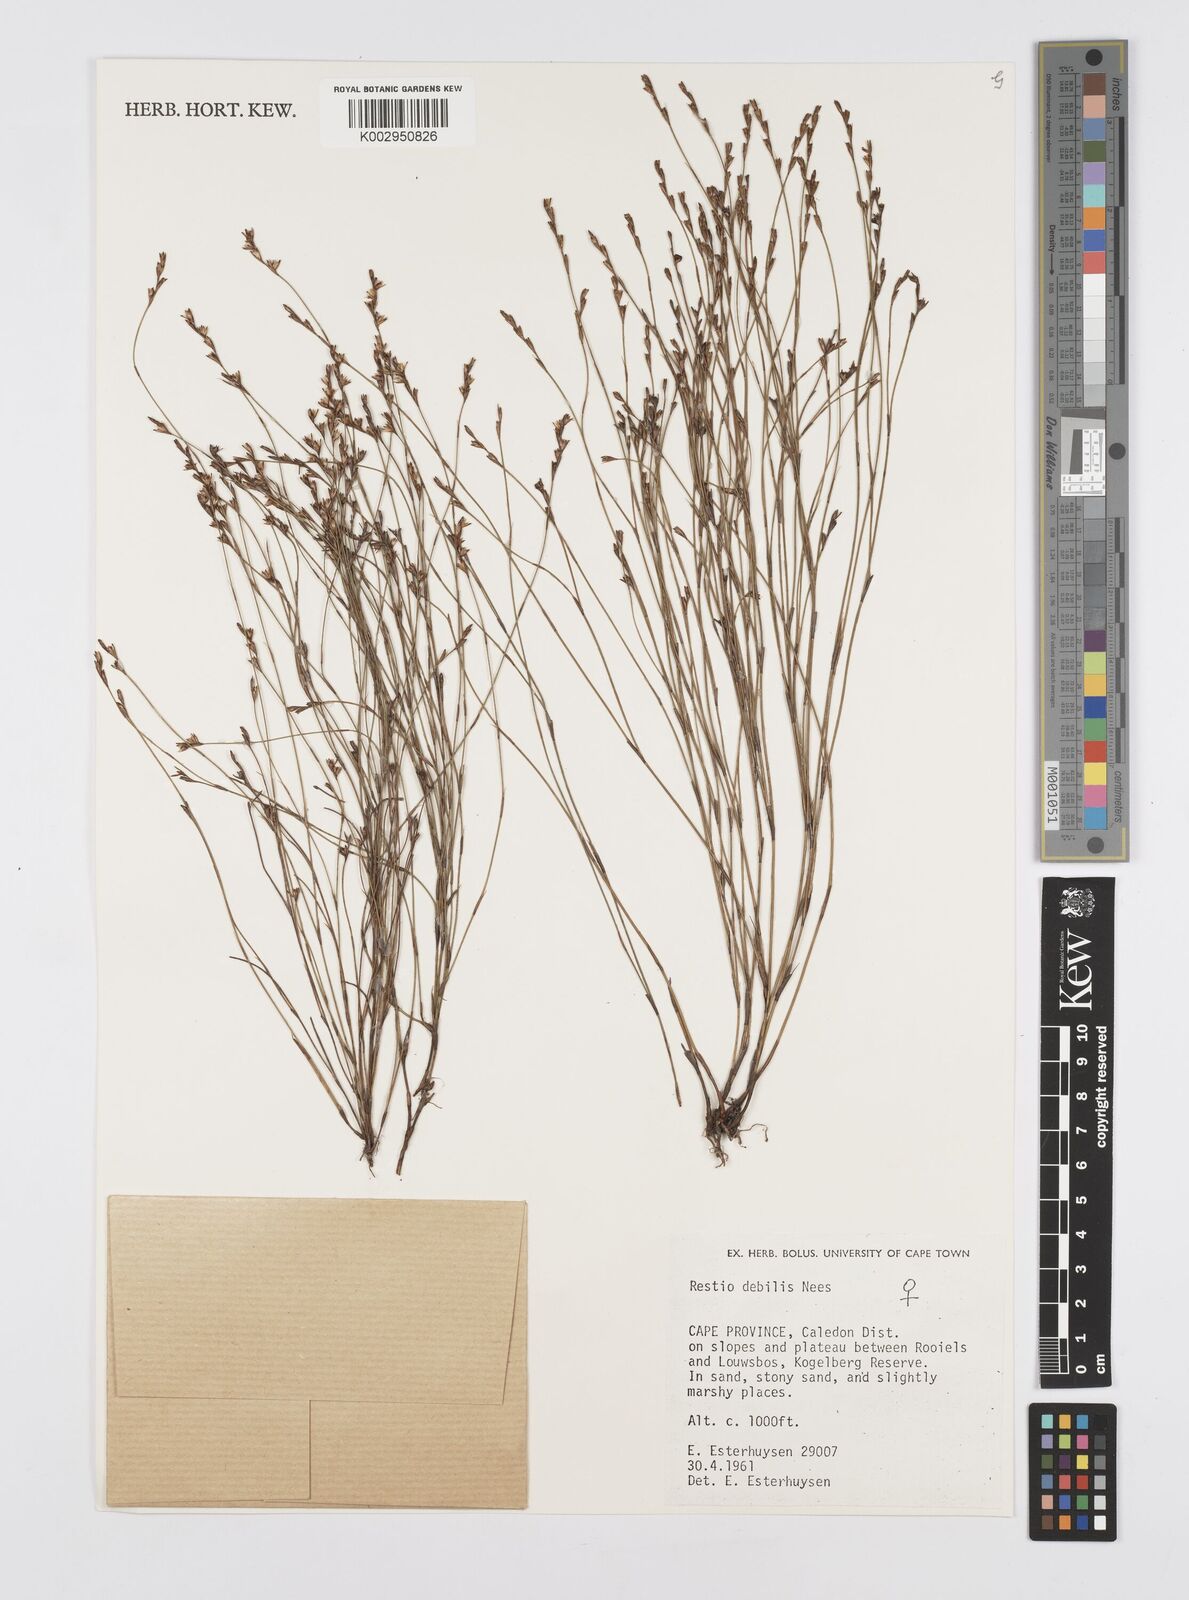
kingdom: Plantae
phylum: Tracheophyta
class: Liliopsida
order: Poales
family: Restionaceae
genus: Restio
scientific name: Restio debilis
